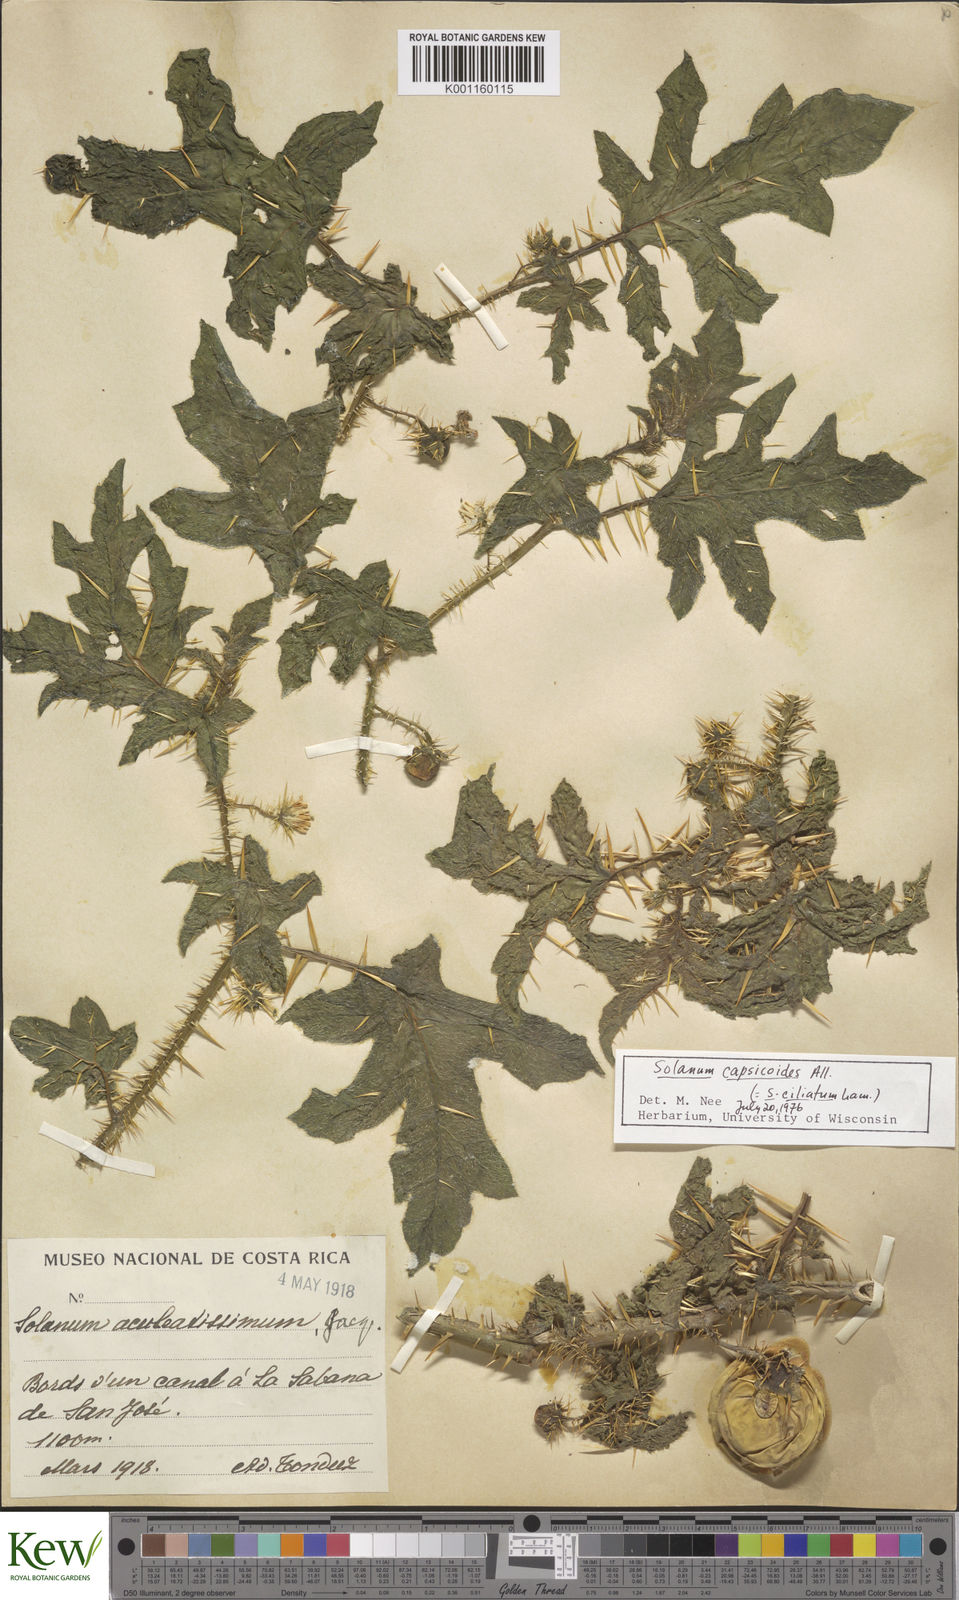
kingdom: Plantae
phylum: Tracheophyta
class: Magnoliopsida
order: Solanales
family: Solanaceae
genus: Solanum
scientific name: Solanum cardiophyllum
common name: Heartleaf horsenettle
